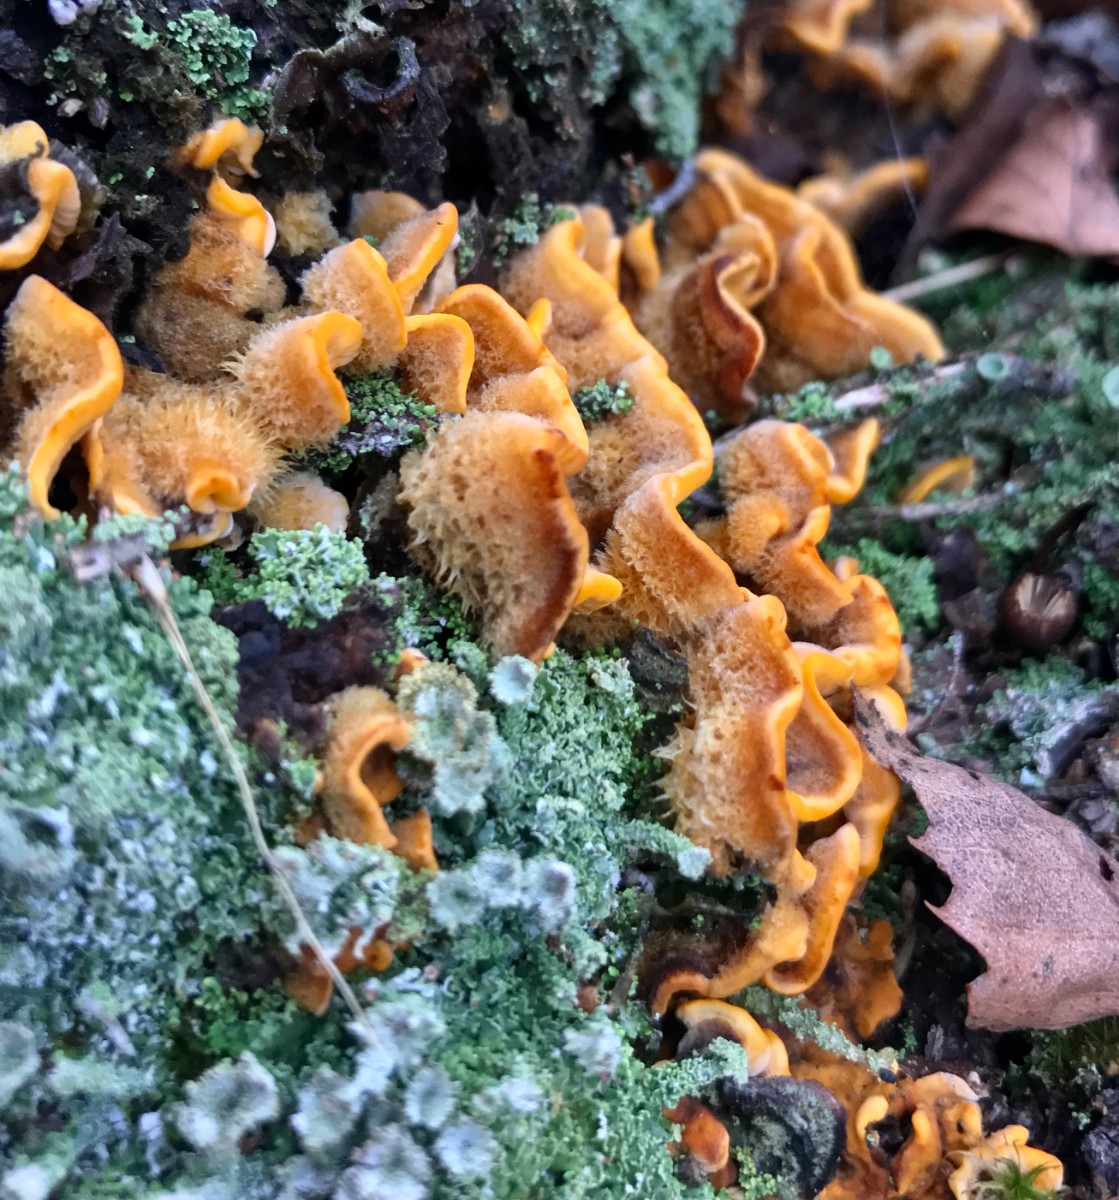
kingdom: Fungi
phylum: Basidiomycota
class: Agaricomycetes
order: Russulales
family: Stereaceae
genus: Stereum
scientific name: Stereum hirsutum
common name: håret lædersvamp
